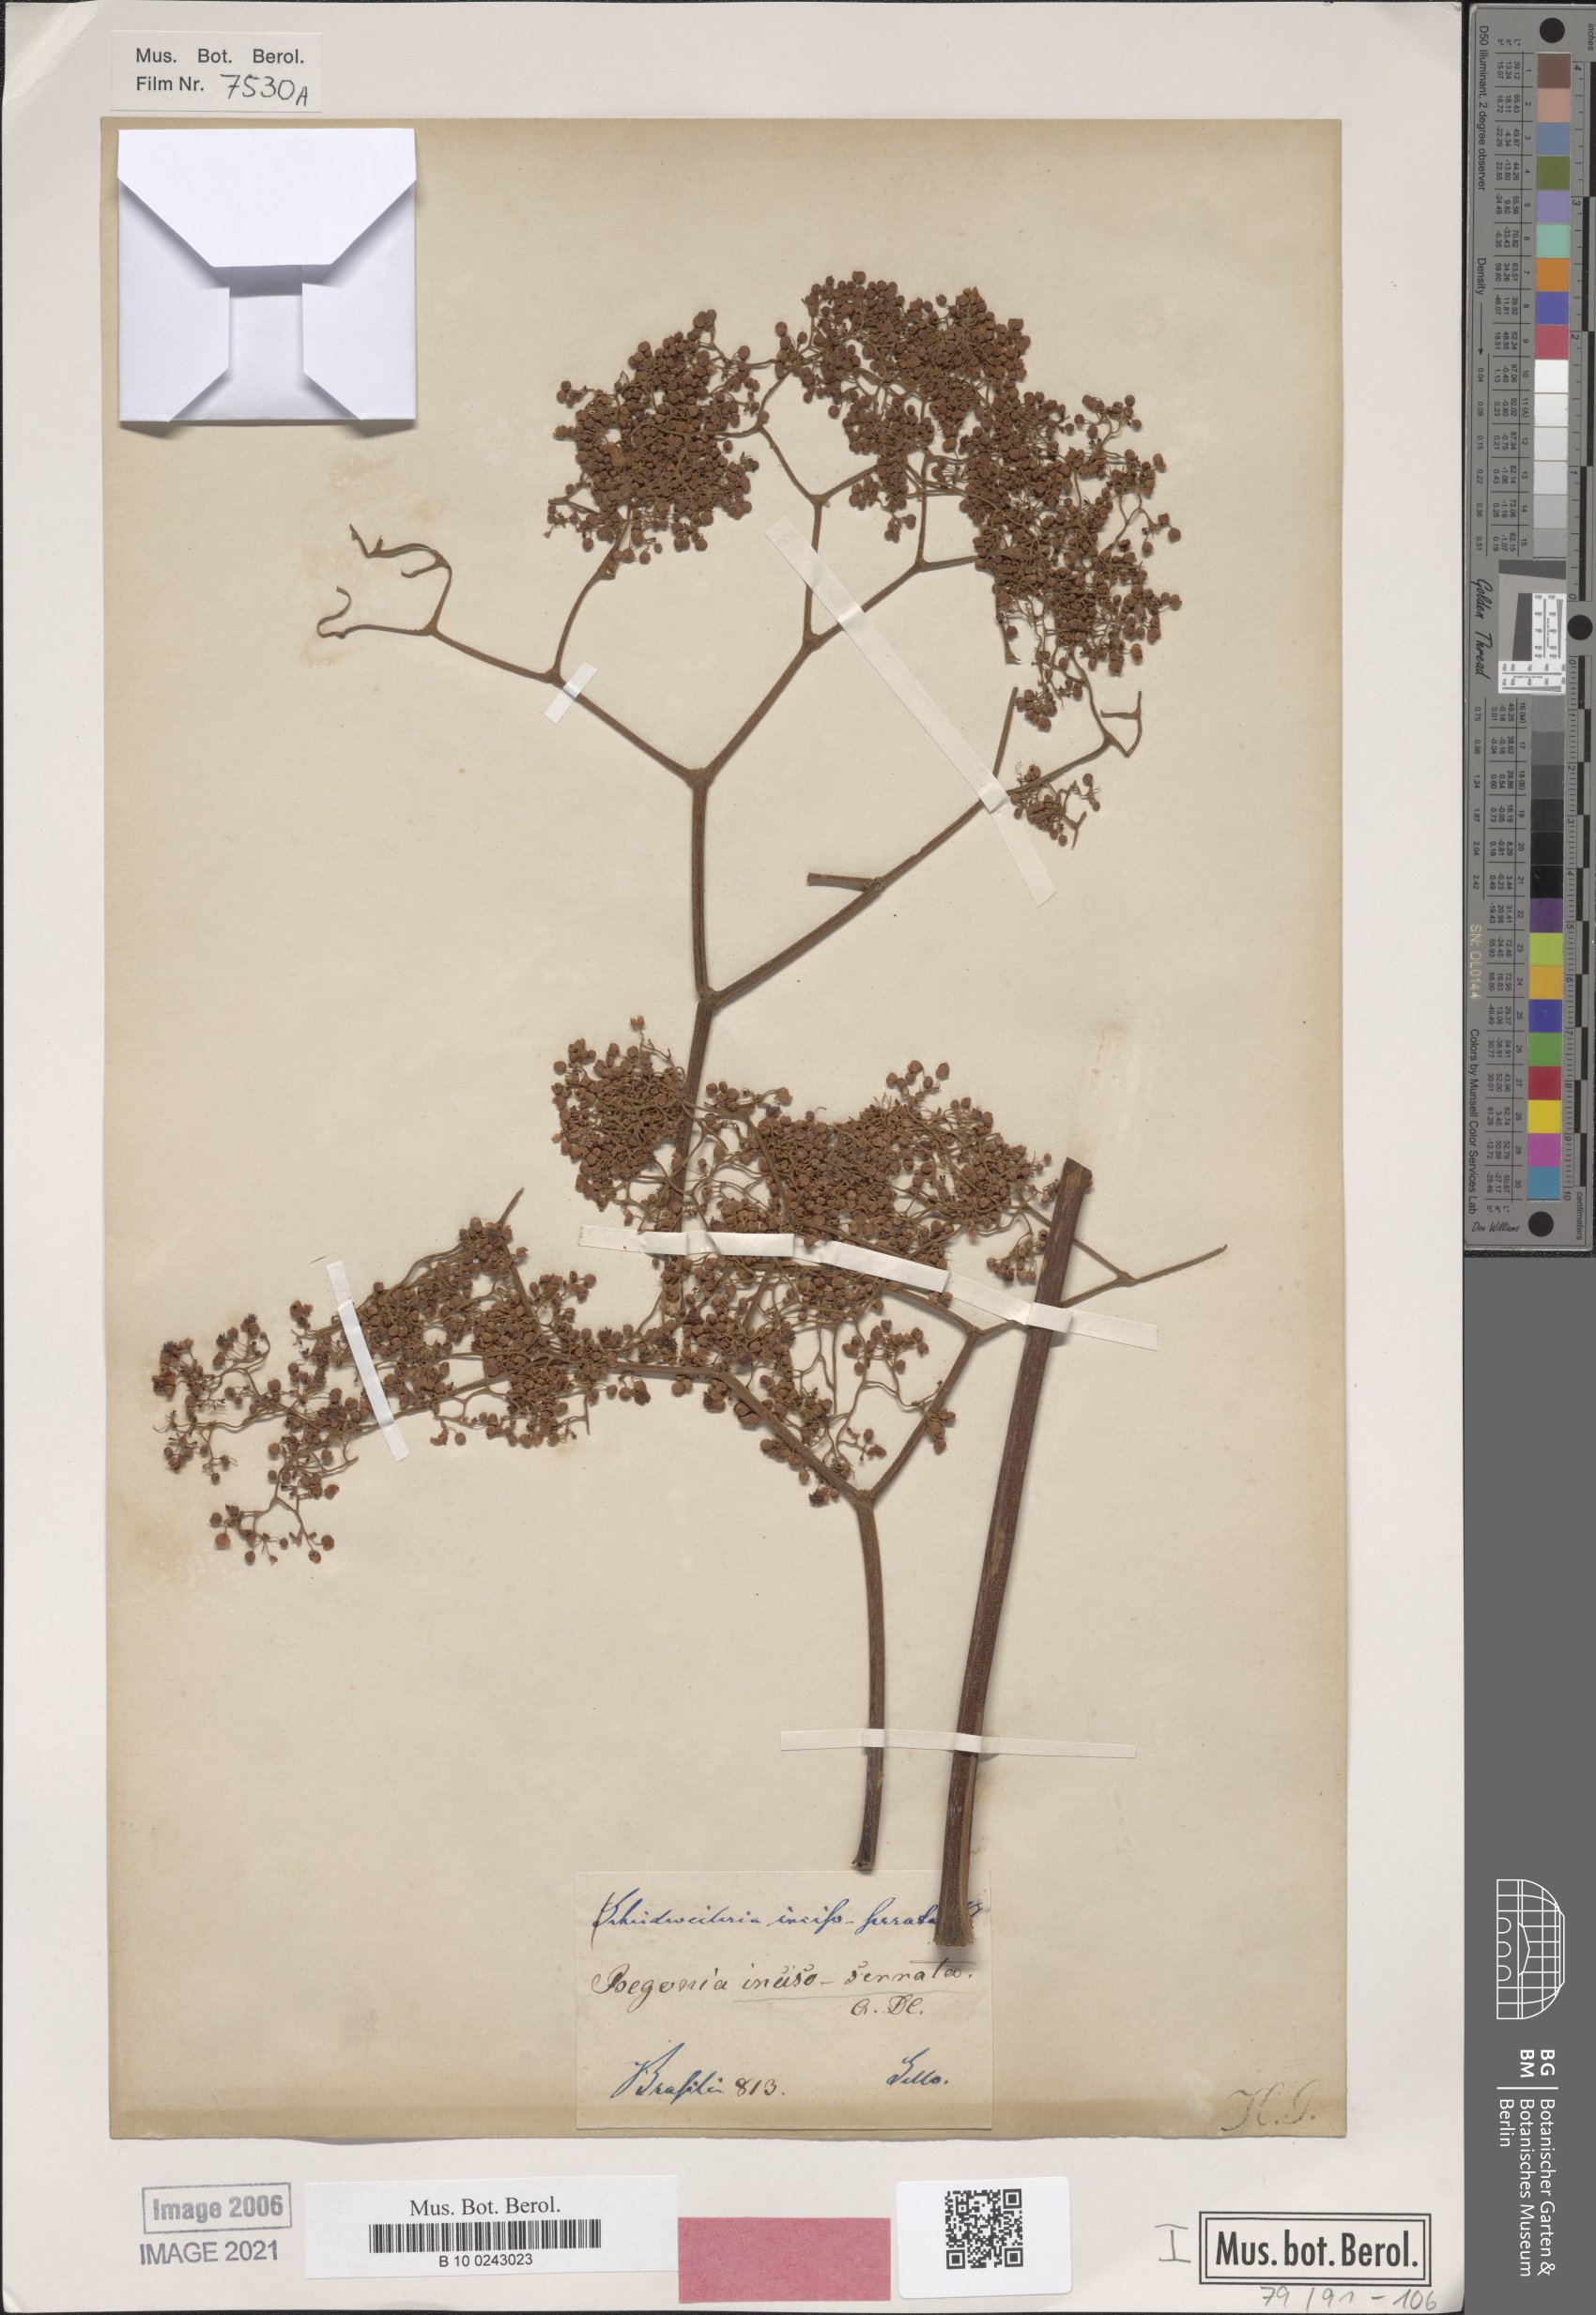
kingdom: Plantae
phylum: Tracheophyta
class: Magnoliopsida
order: Cucurbitales
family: Begoniaceae
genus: Begonia
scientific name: Begonia incisoserrata
